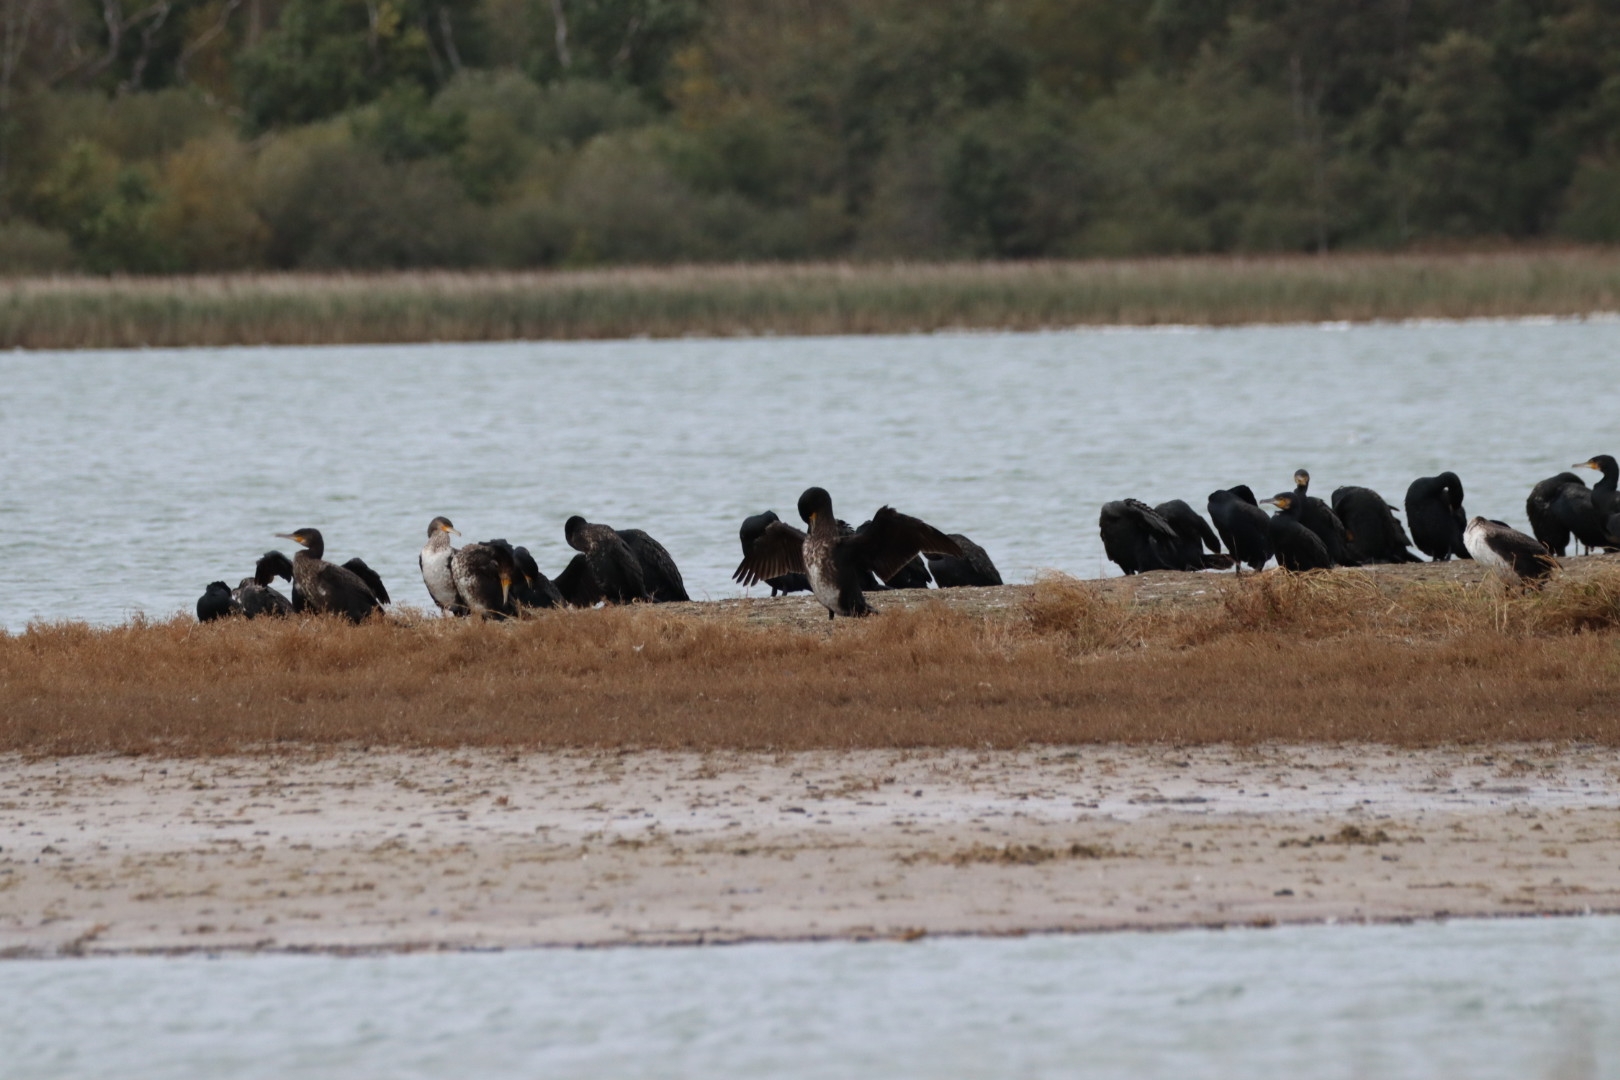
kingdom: Animalia
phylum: Chordata
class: Aves
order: Suliformes
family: Phalacrocoracidae
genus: Phalacrocorax
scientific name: Phalacrocorax carbo
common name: Skarv
